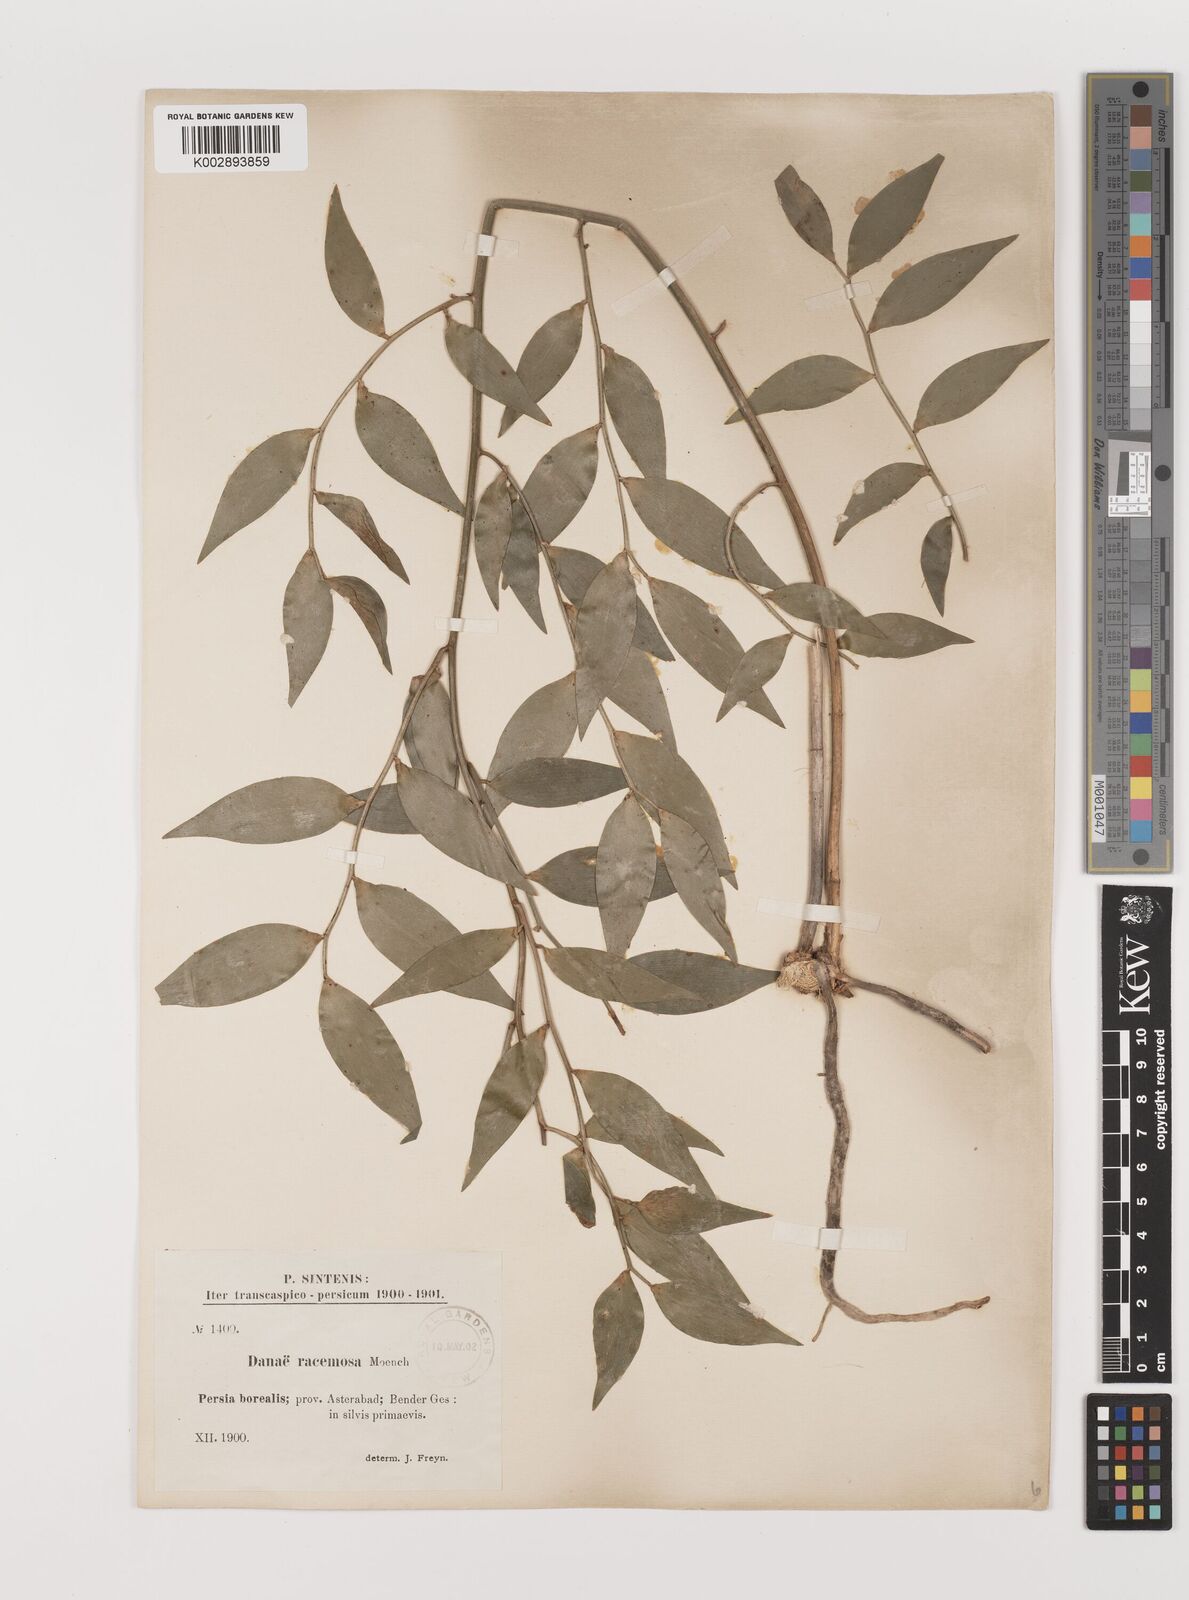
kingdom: Plantae
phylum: Tracheophyta
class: Liliopsida
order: Asparagales
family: Asparagaceae
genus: Danae
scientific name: Danae racemosa
